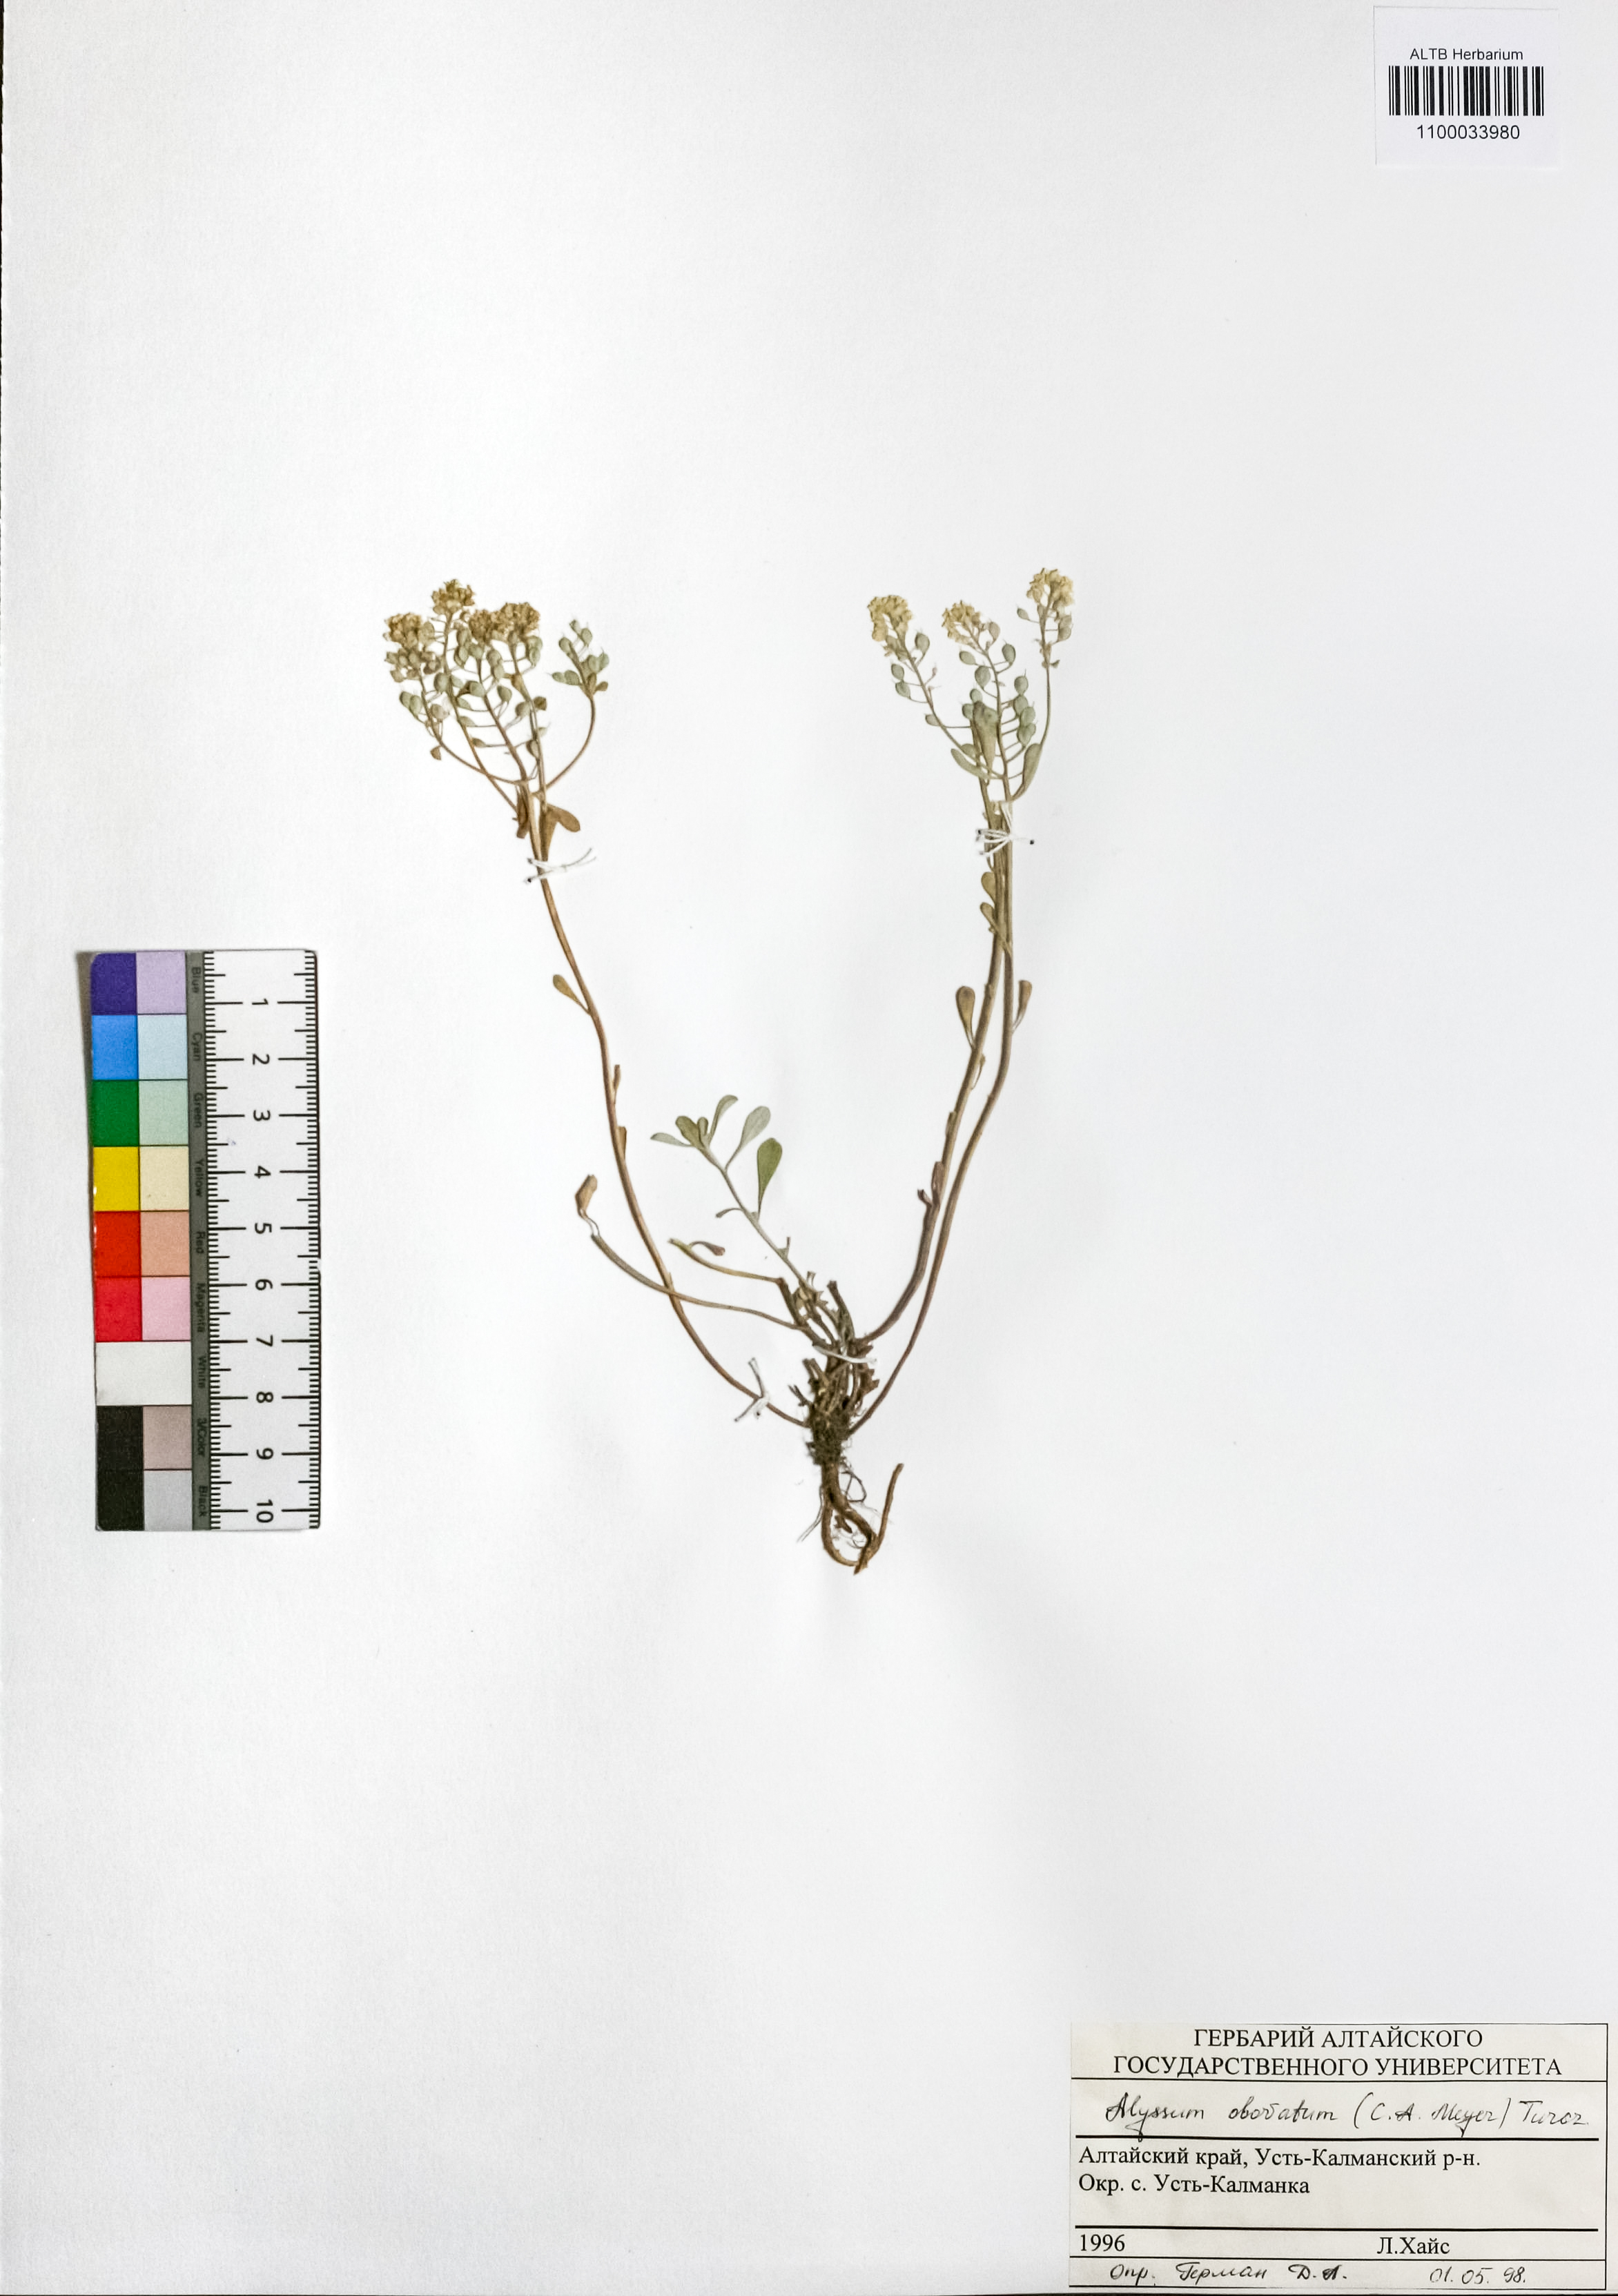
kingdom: Plantae
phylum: Tracheophyta
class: Magnoliopsida
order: Brassicales
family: Brassicaceae
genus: Odontarrhena
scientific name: Odontarrhena obovata
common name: American alyssum
